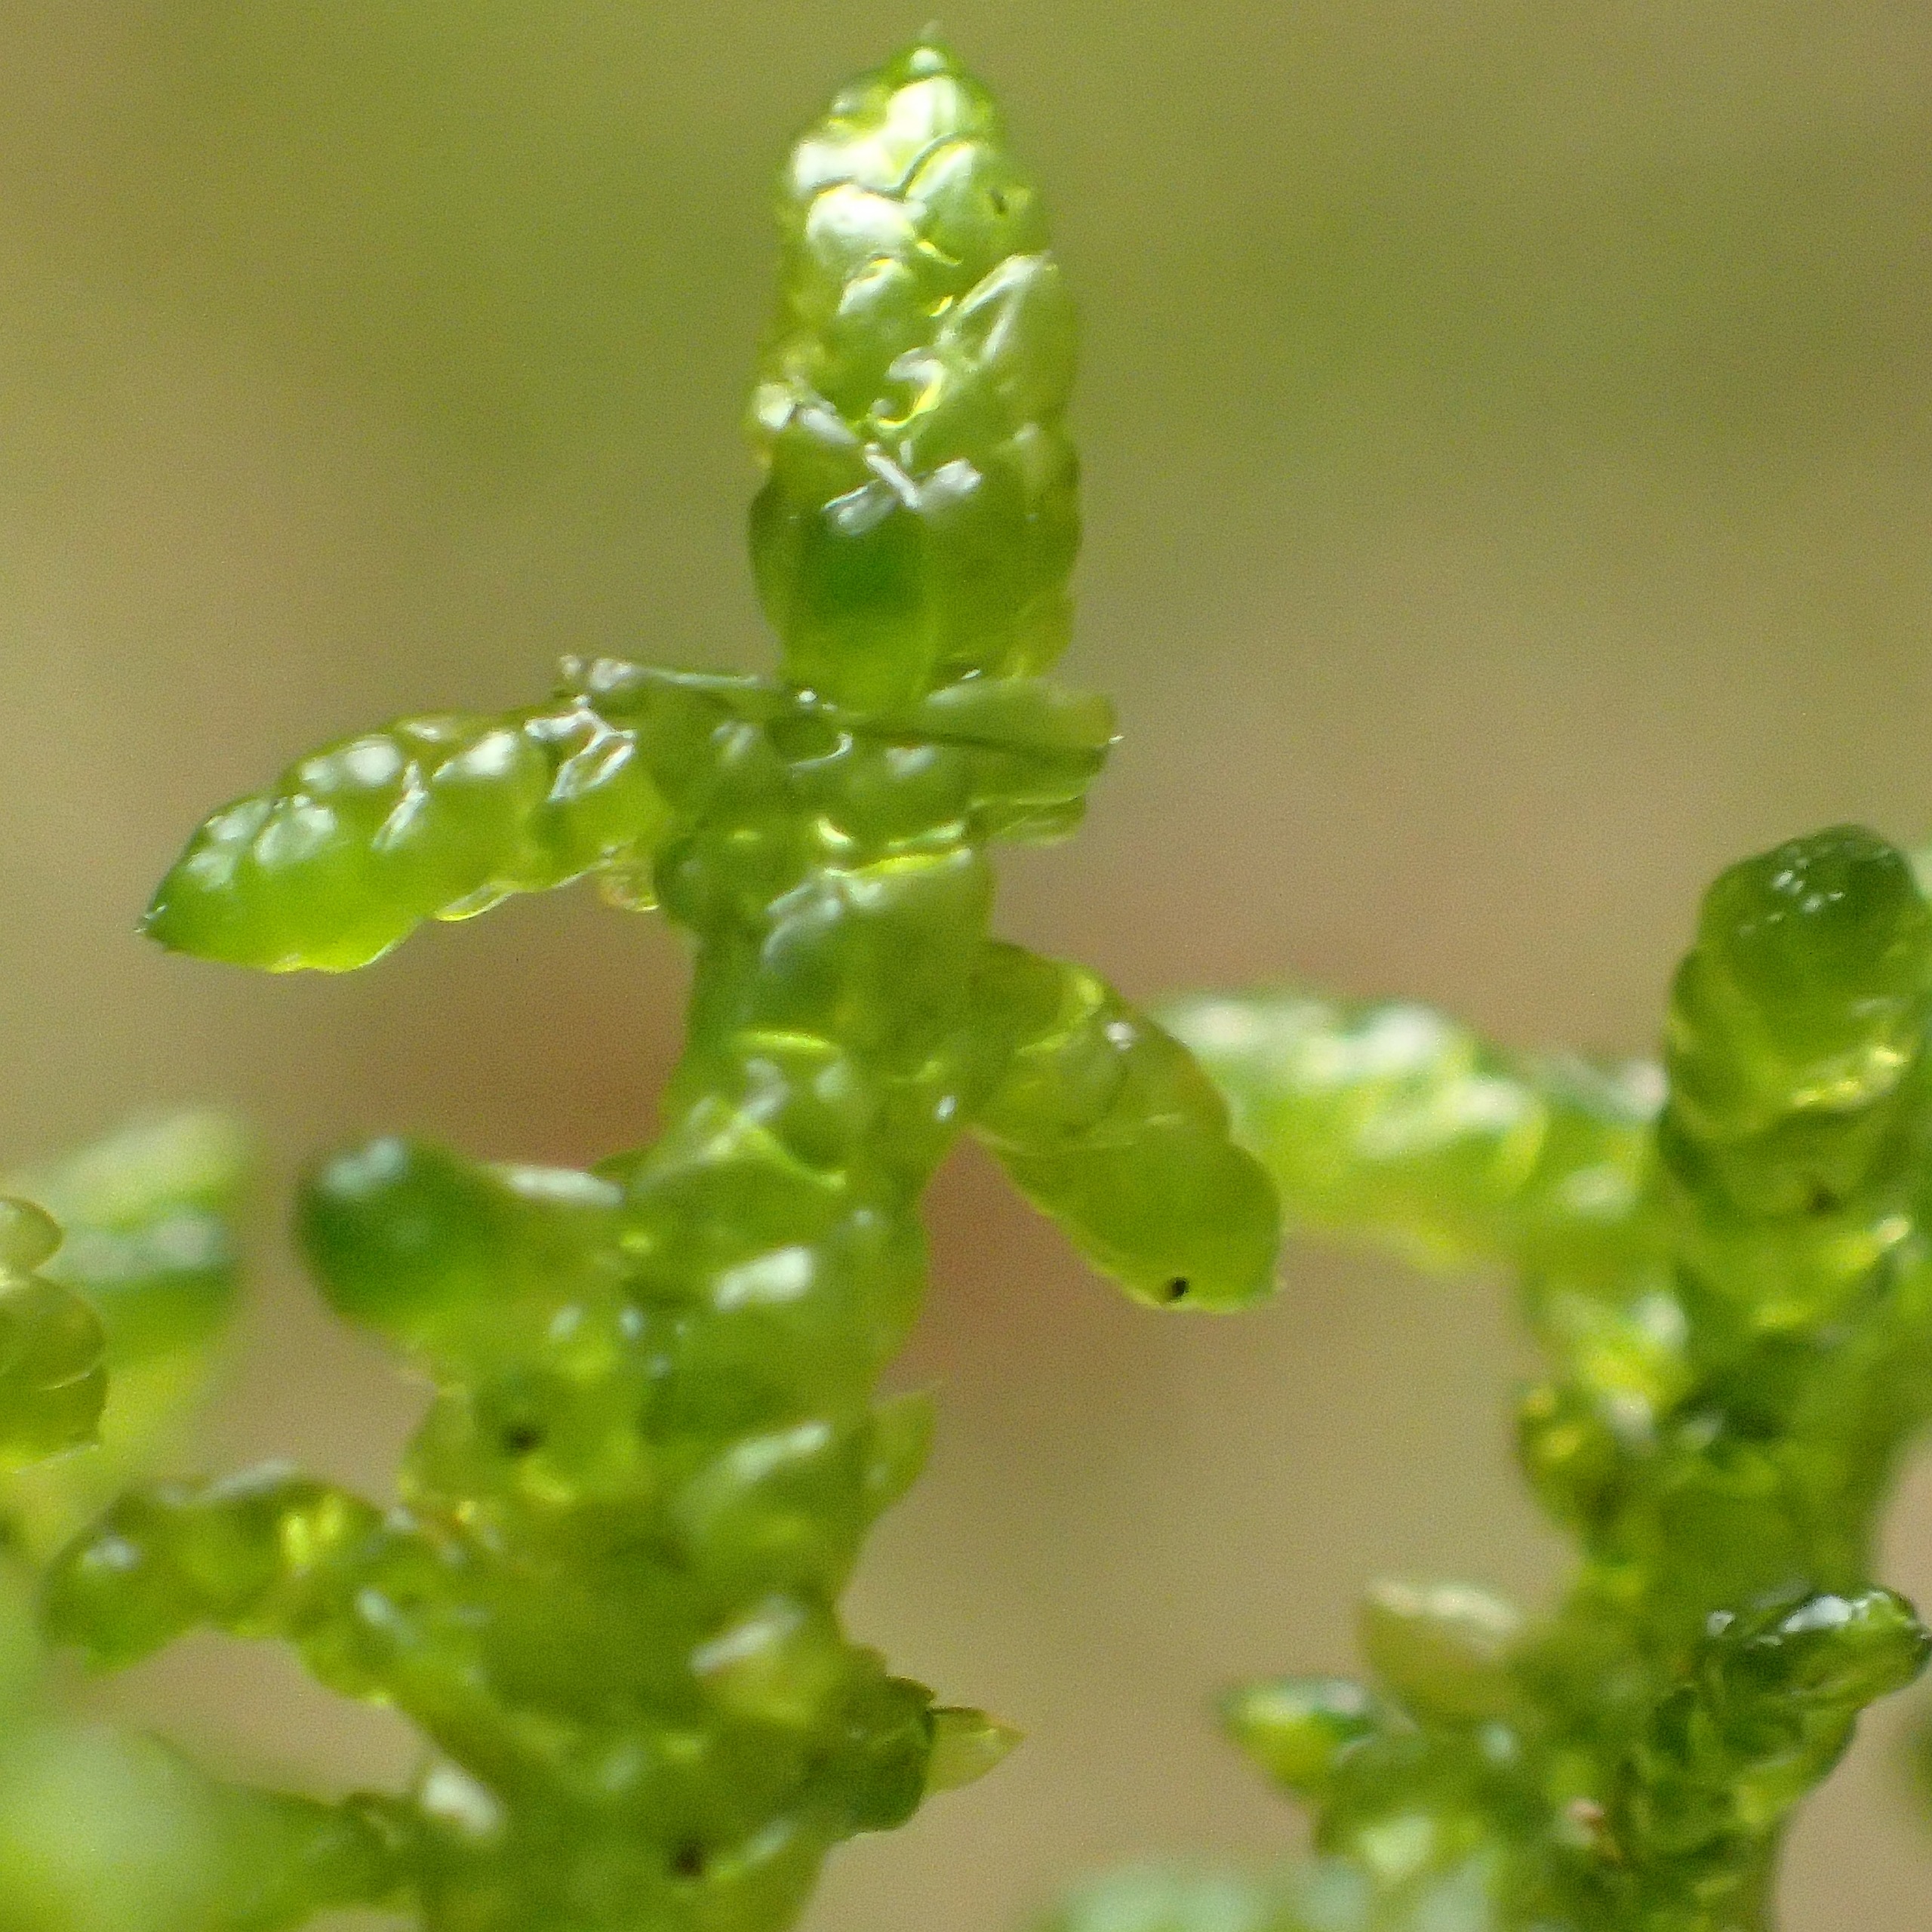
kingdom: Plantae
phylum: Bryophyta
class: Bryopsida
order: Hypnales
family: Brachytheciaceae
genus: Pseudoscleropodium
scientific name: Pseudoscleropodium purum
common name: Hulbladet fedtmos
